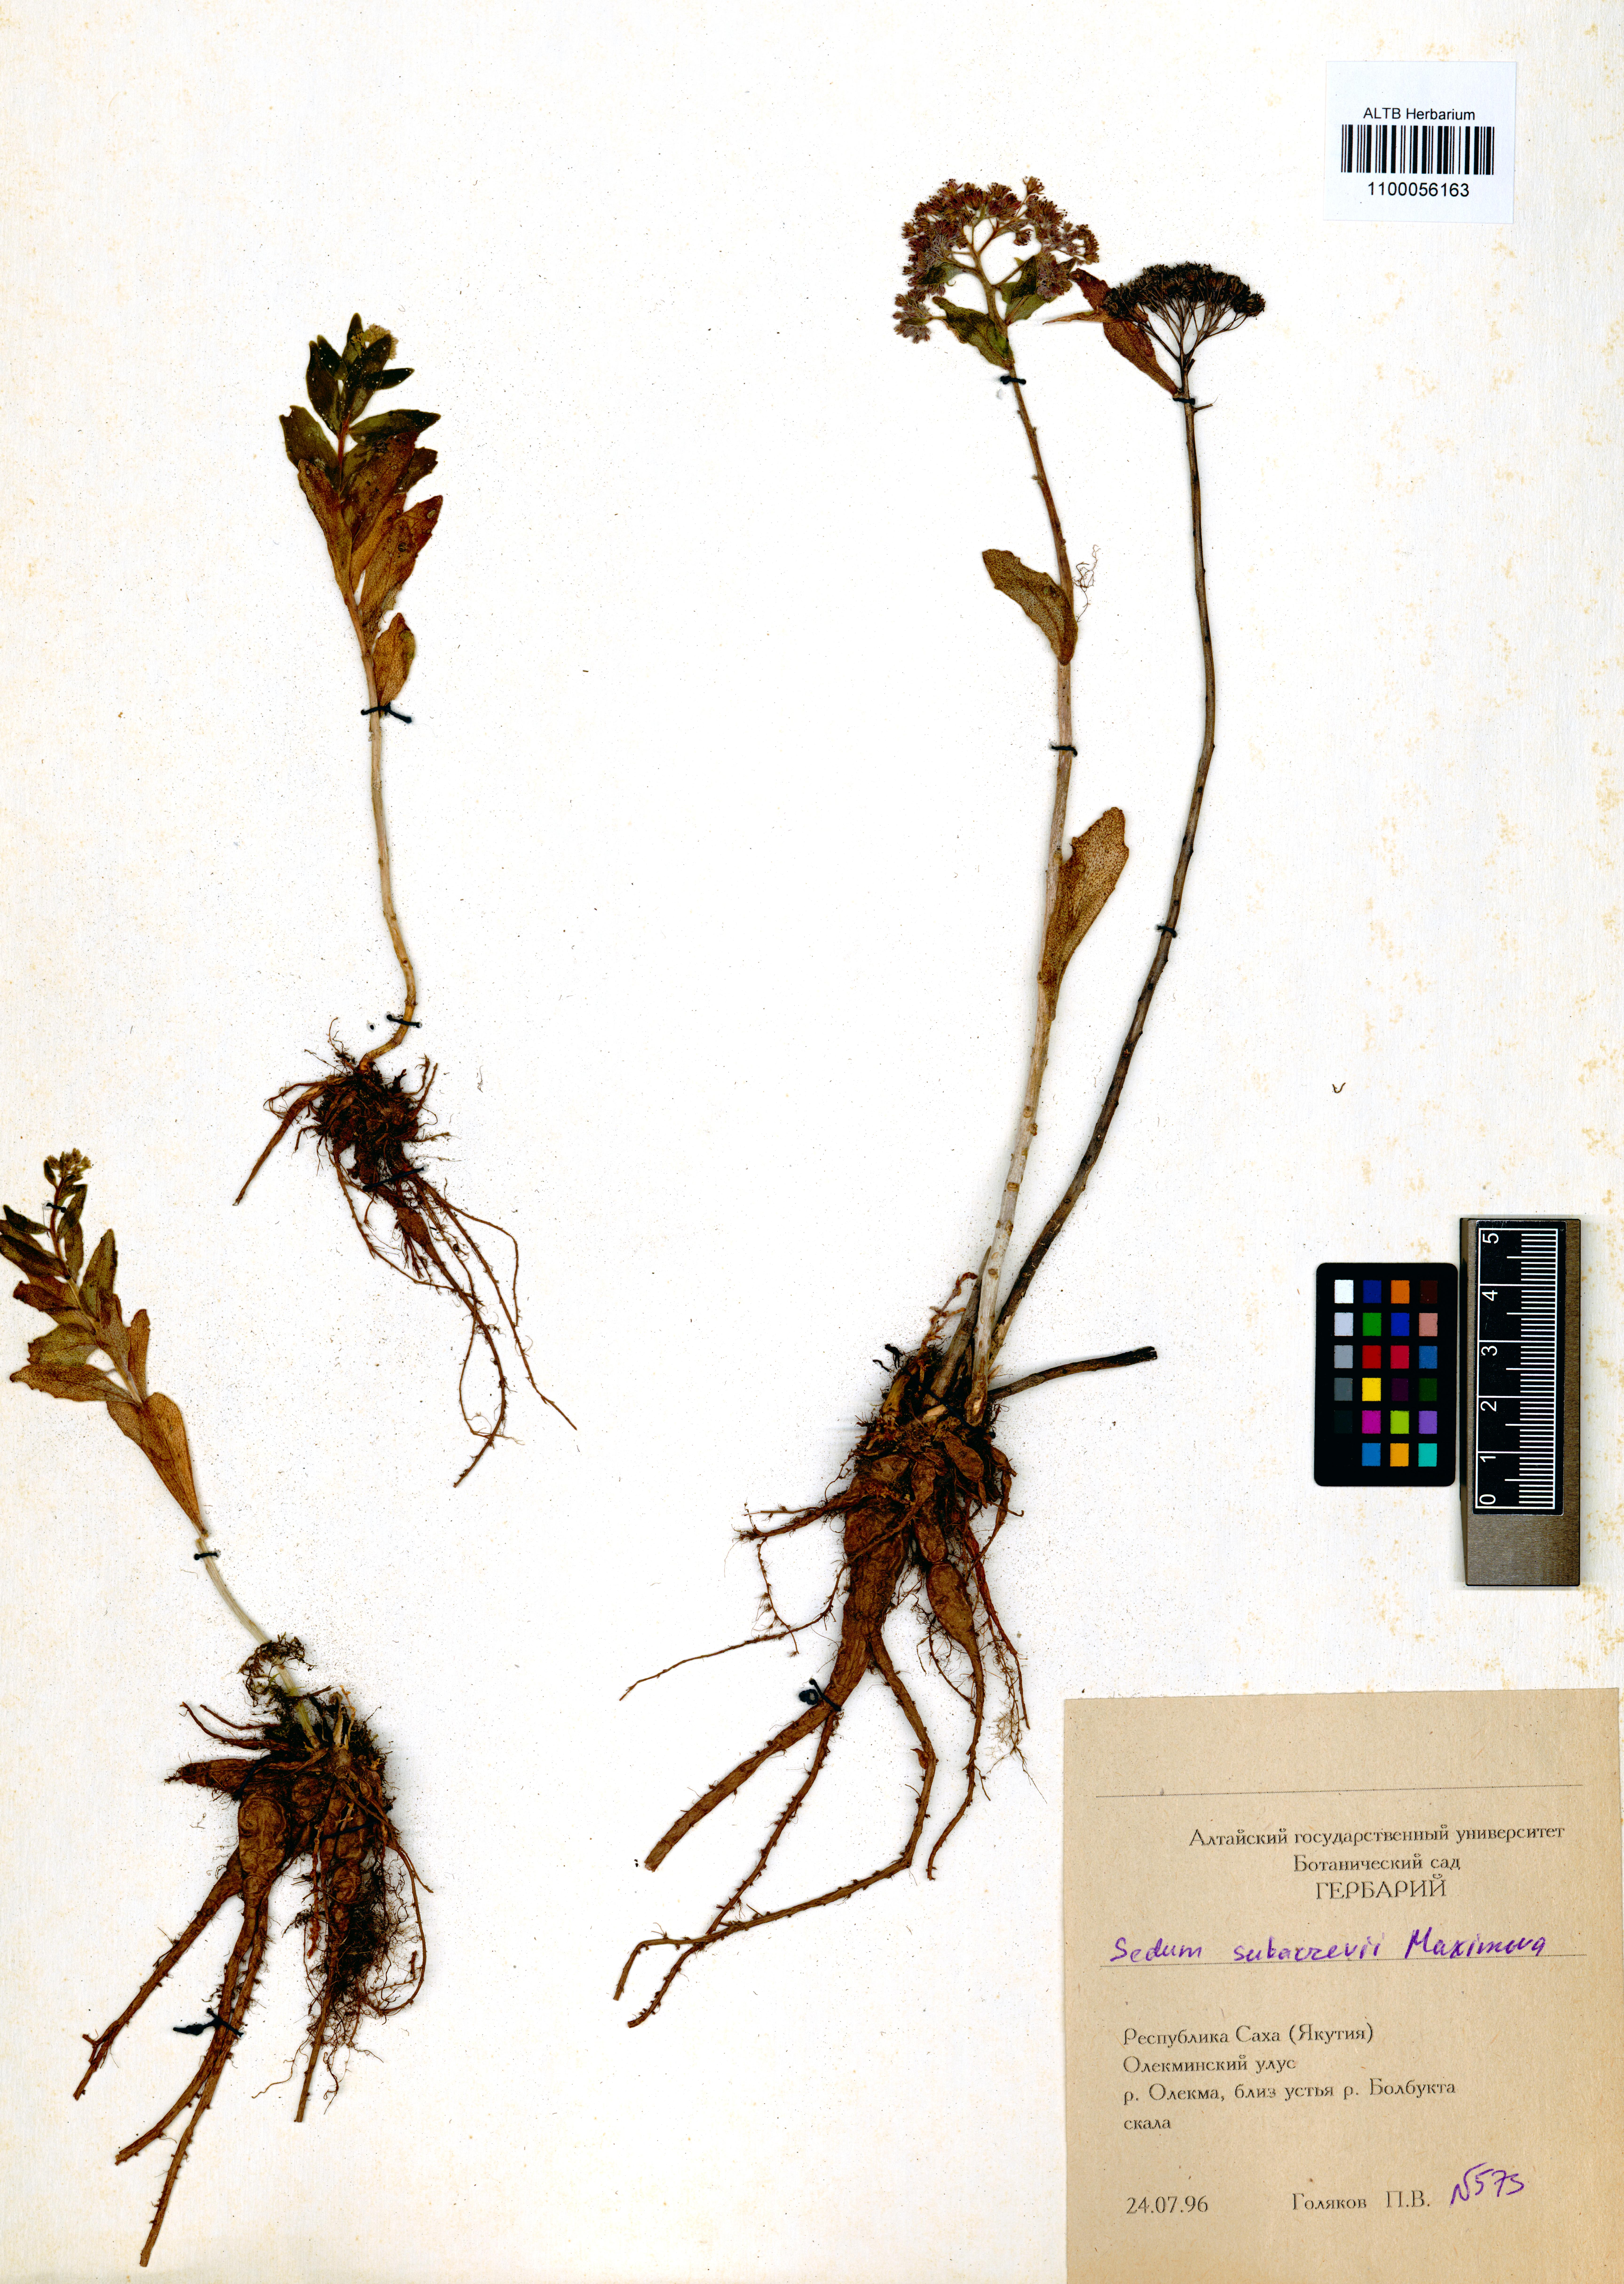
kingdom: Plantae
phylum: Tracheophyta
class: Magnoliopsida
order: Saxifragales
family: Crassulaceae
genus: Hylotelephium
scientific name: Hylotelephium pallescens
